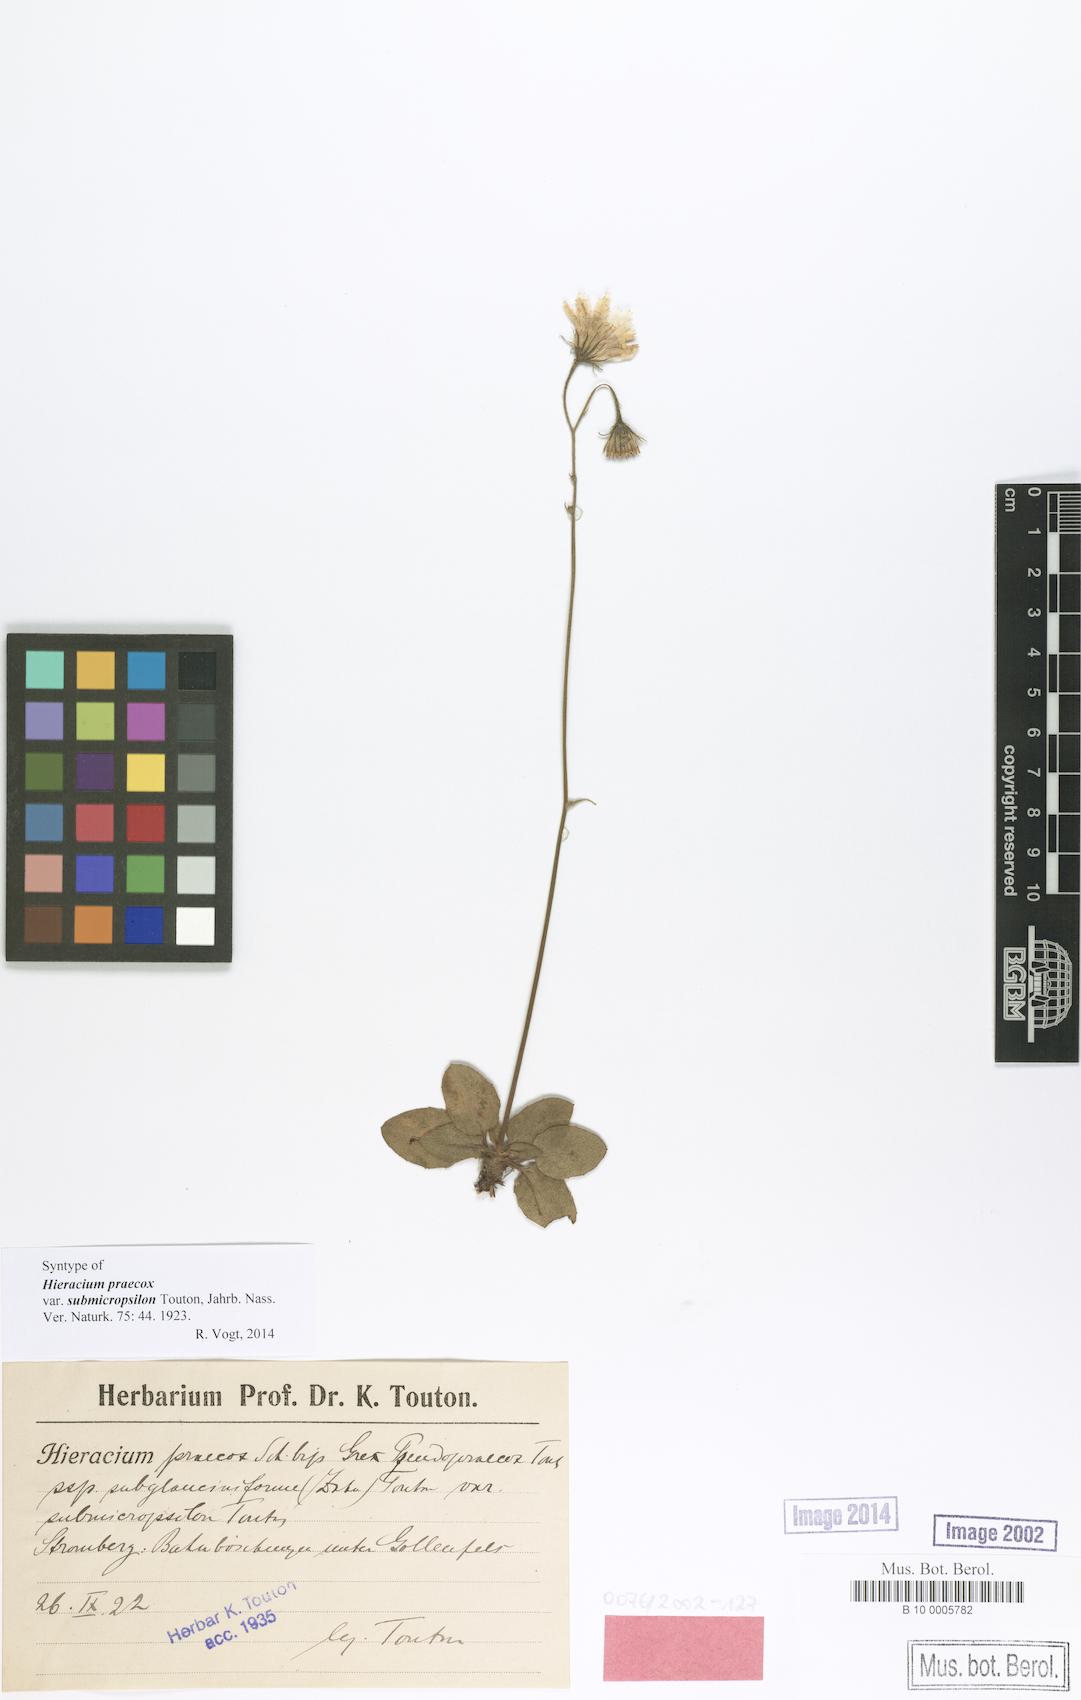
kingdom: Plantae
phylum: Tracheophyta
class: Magnoliopsida
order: Asterales
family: Asteraceae
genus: Hieracium
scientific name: Hieracium praecox
